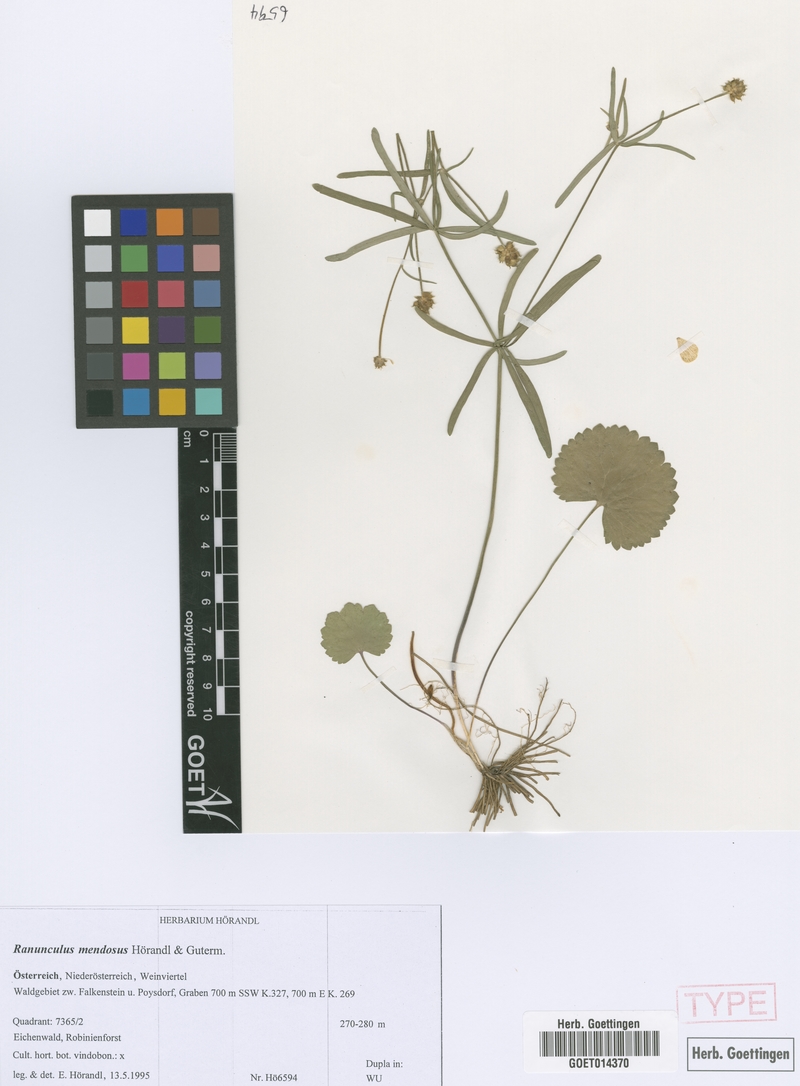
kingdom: Plantae
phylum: Tracheophyta
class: Magnoliopsida
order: Ranunculales
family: Ranunculaceae
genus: Ranunculus
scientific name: Ranunculus mendosus
